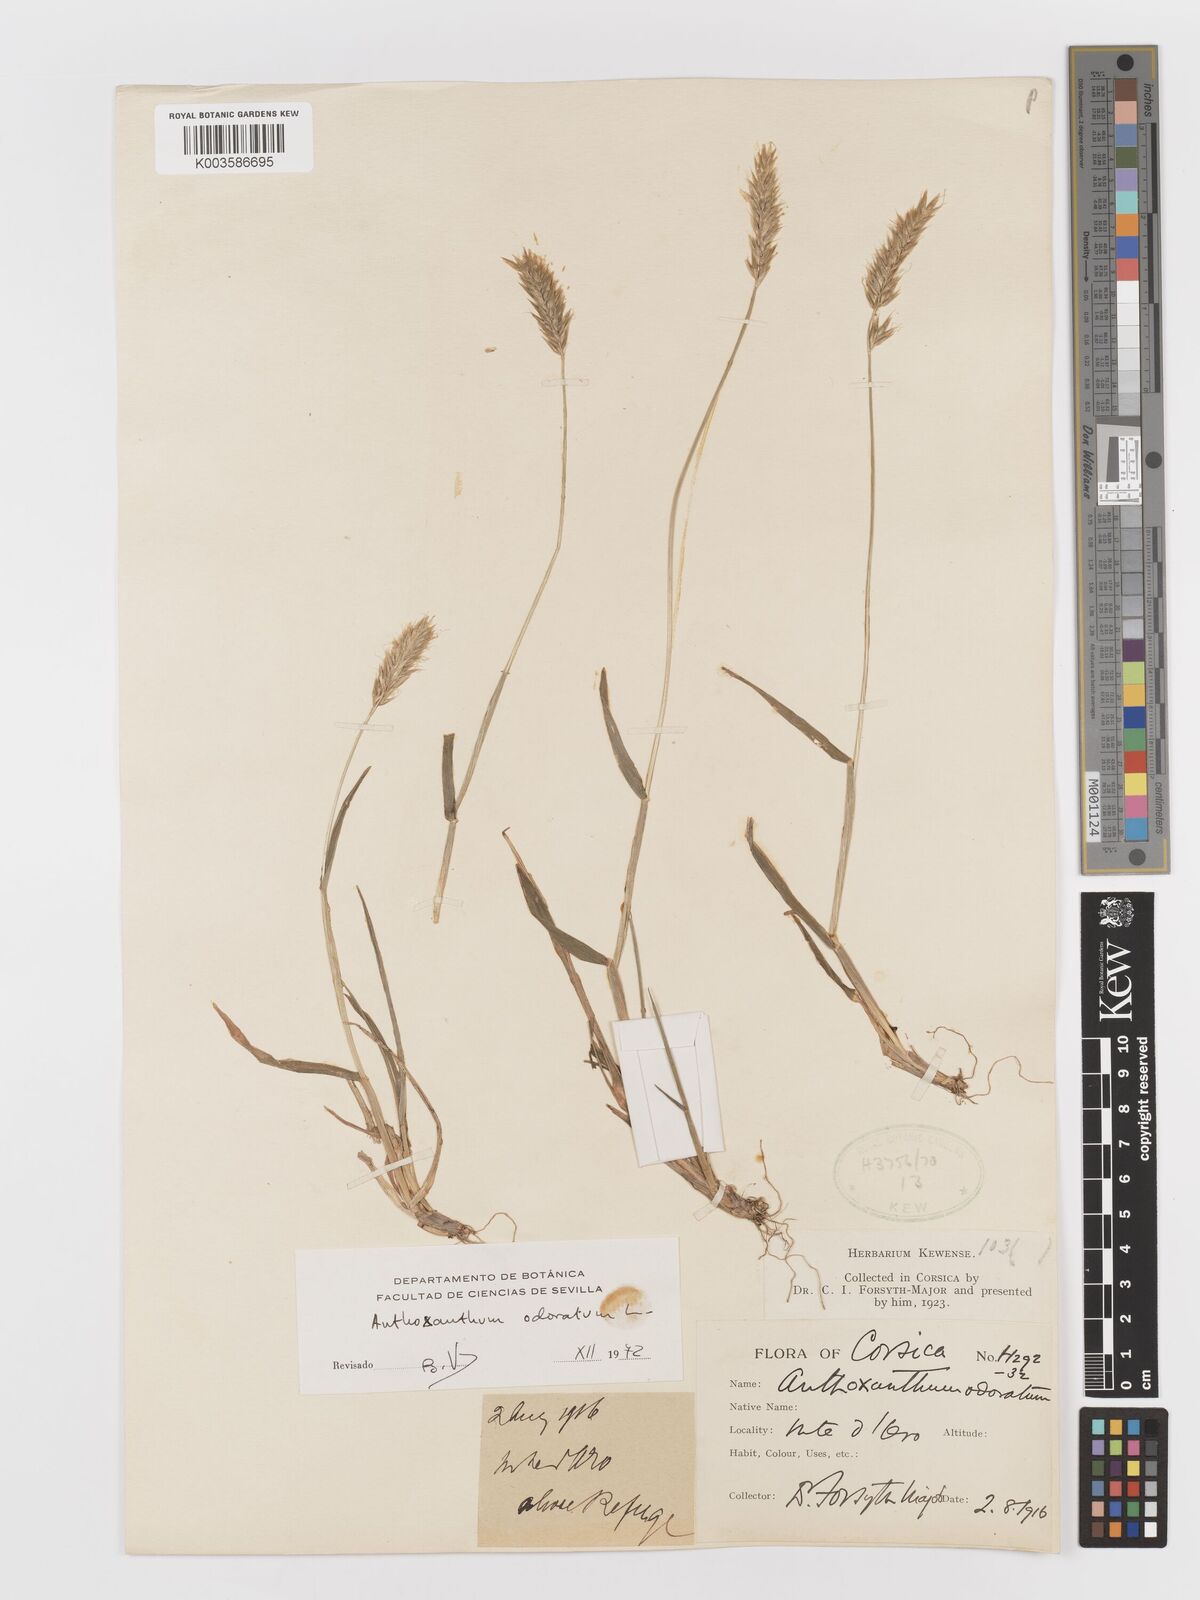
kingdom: Plantae
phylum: Tracheophyta
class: Liliopsida
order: Poales
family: Poaceae
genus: Anthoxanthum
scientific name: Anthoxanthum odoratum
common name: Sweet vernalgrass
